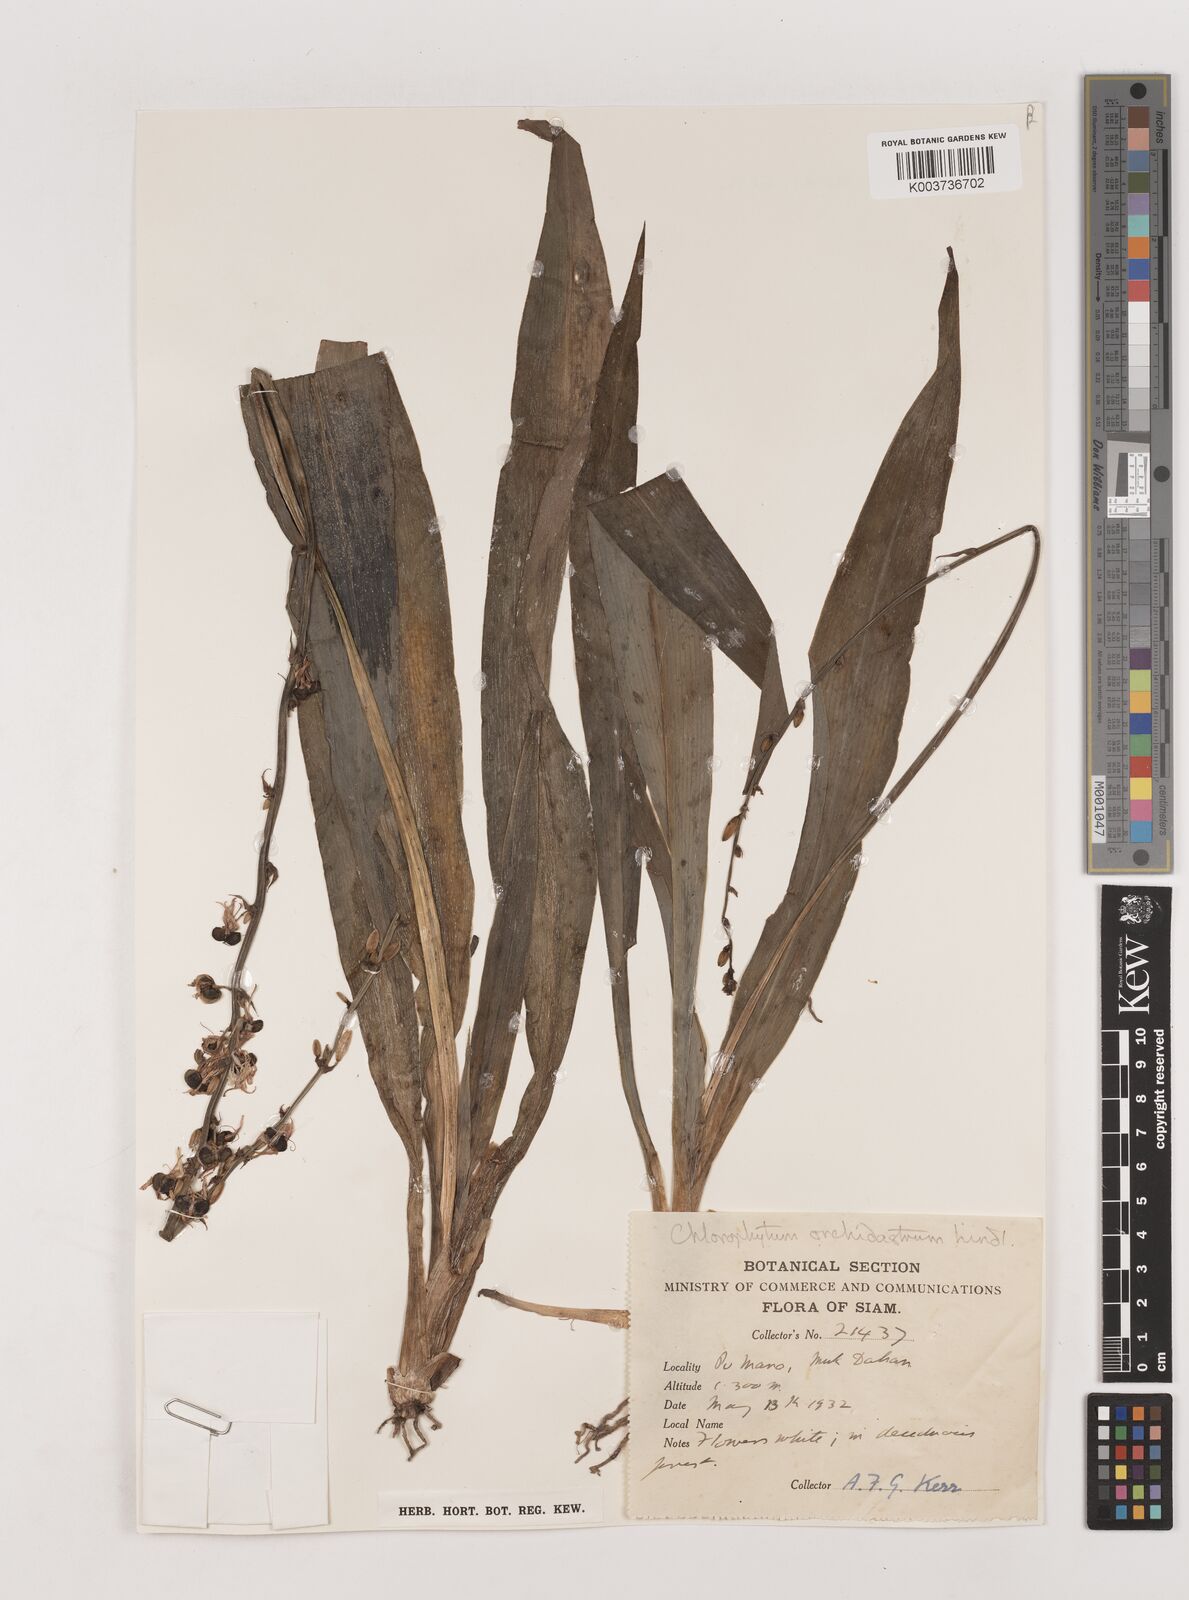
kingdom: Plantae
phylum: Tracheophyta
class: Liliopsida
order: Asparagales
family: Asparagaceae
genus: Chlorophytum
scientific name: Chlorophytum orchidastrum
